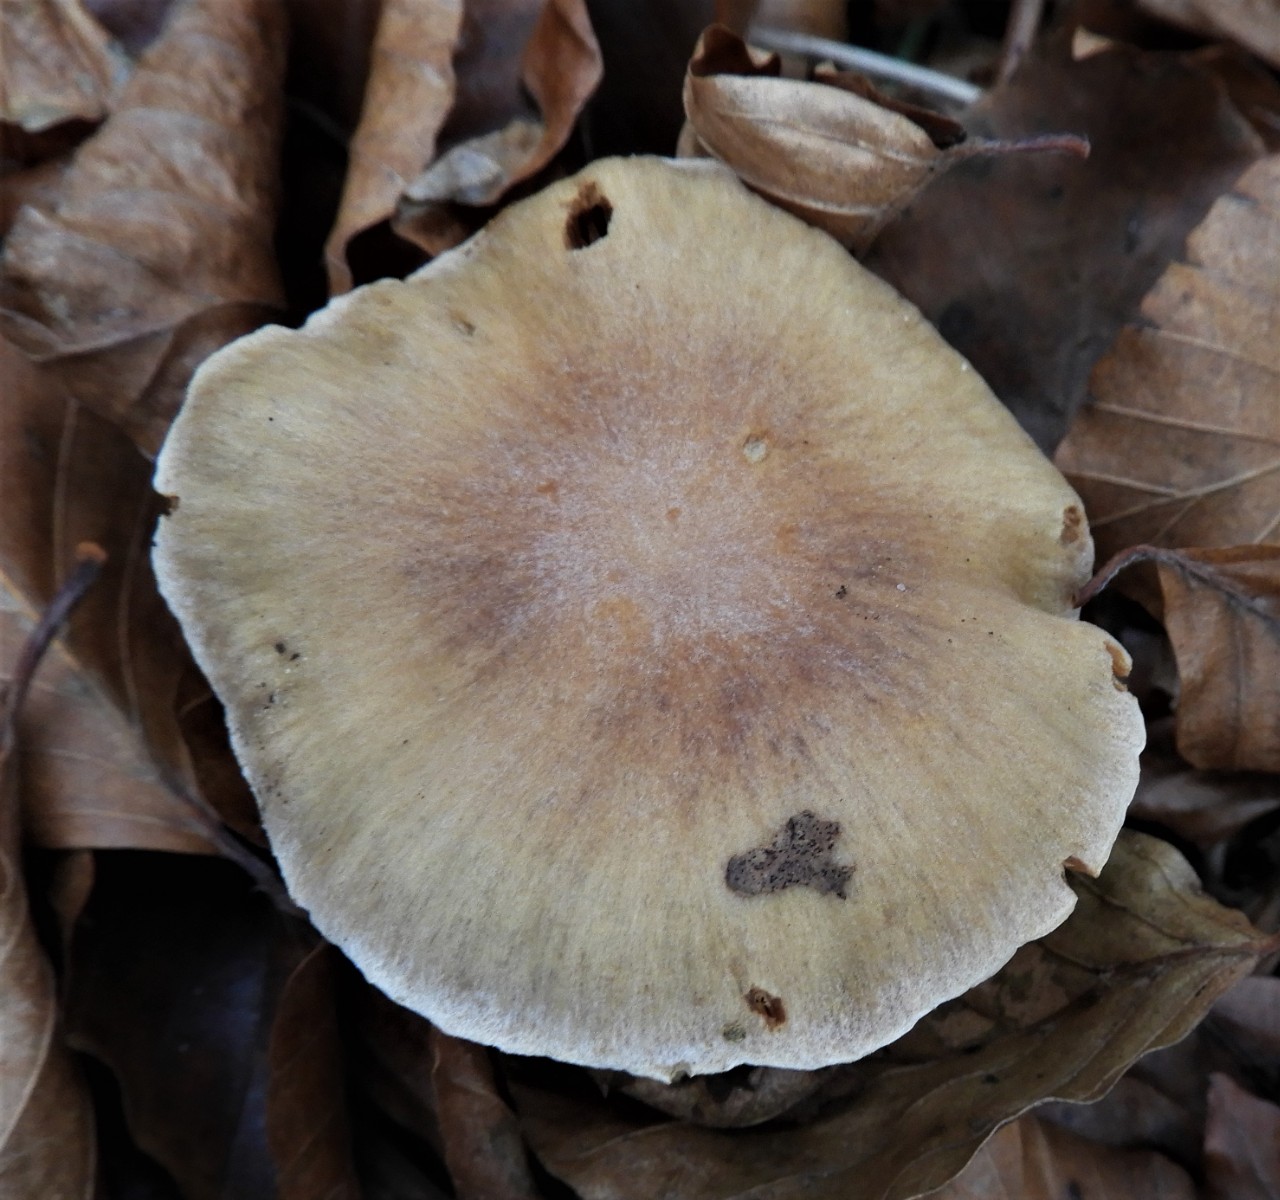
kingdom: Fungi
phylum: Basidiomycota
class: Agaricomycetes
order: Agaricales
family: Cortinariaceae
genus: Cortinarius
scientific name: Cortinarius hinnuleus
